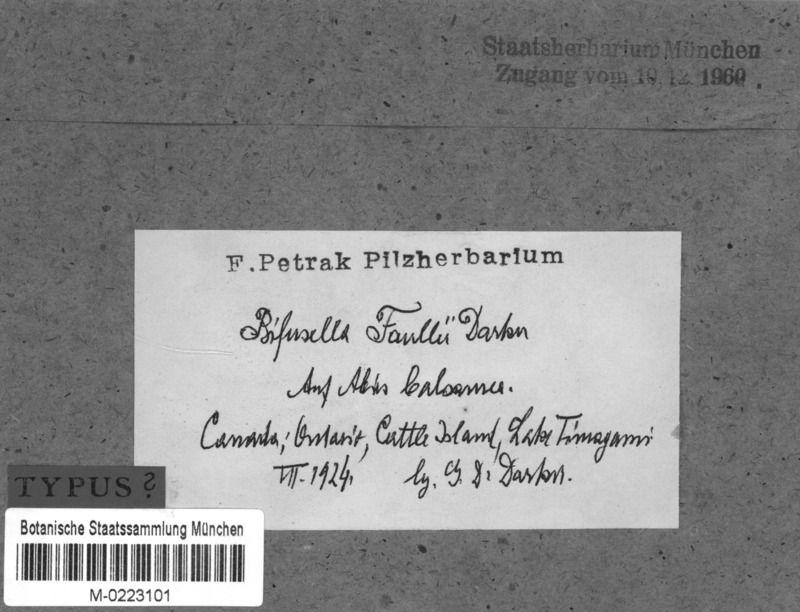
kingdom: Fungi
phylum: Ascomycota
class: Leotiomycetes
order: Rhytismatales
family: Rhytismataceae
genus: Isthmiella
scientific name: Isthmiella faullii
